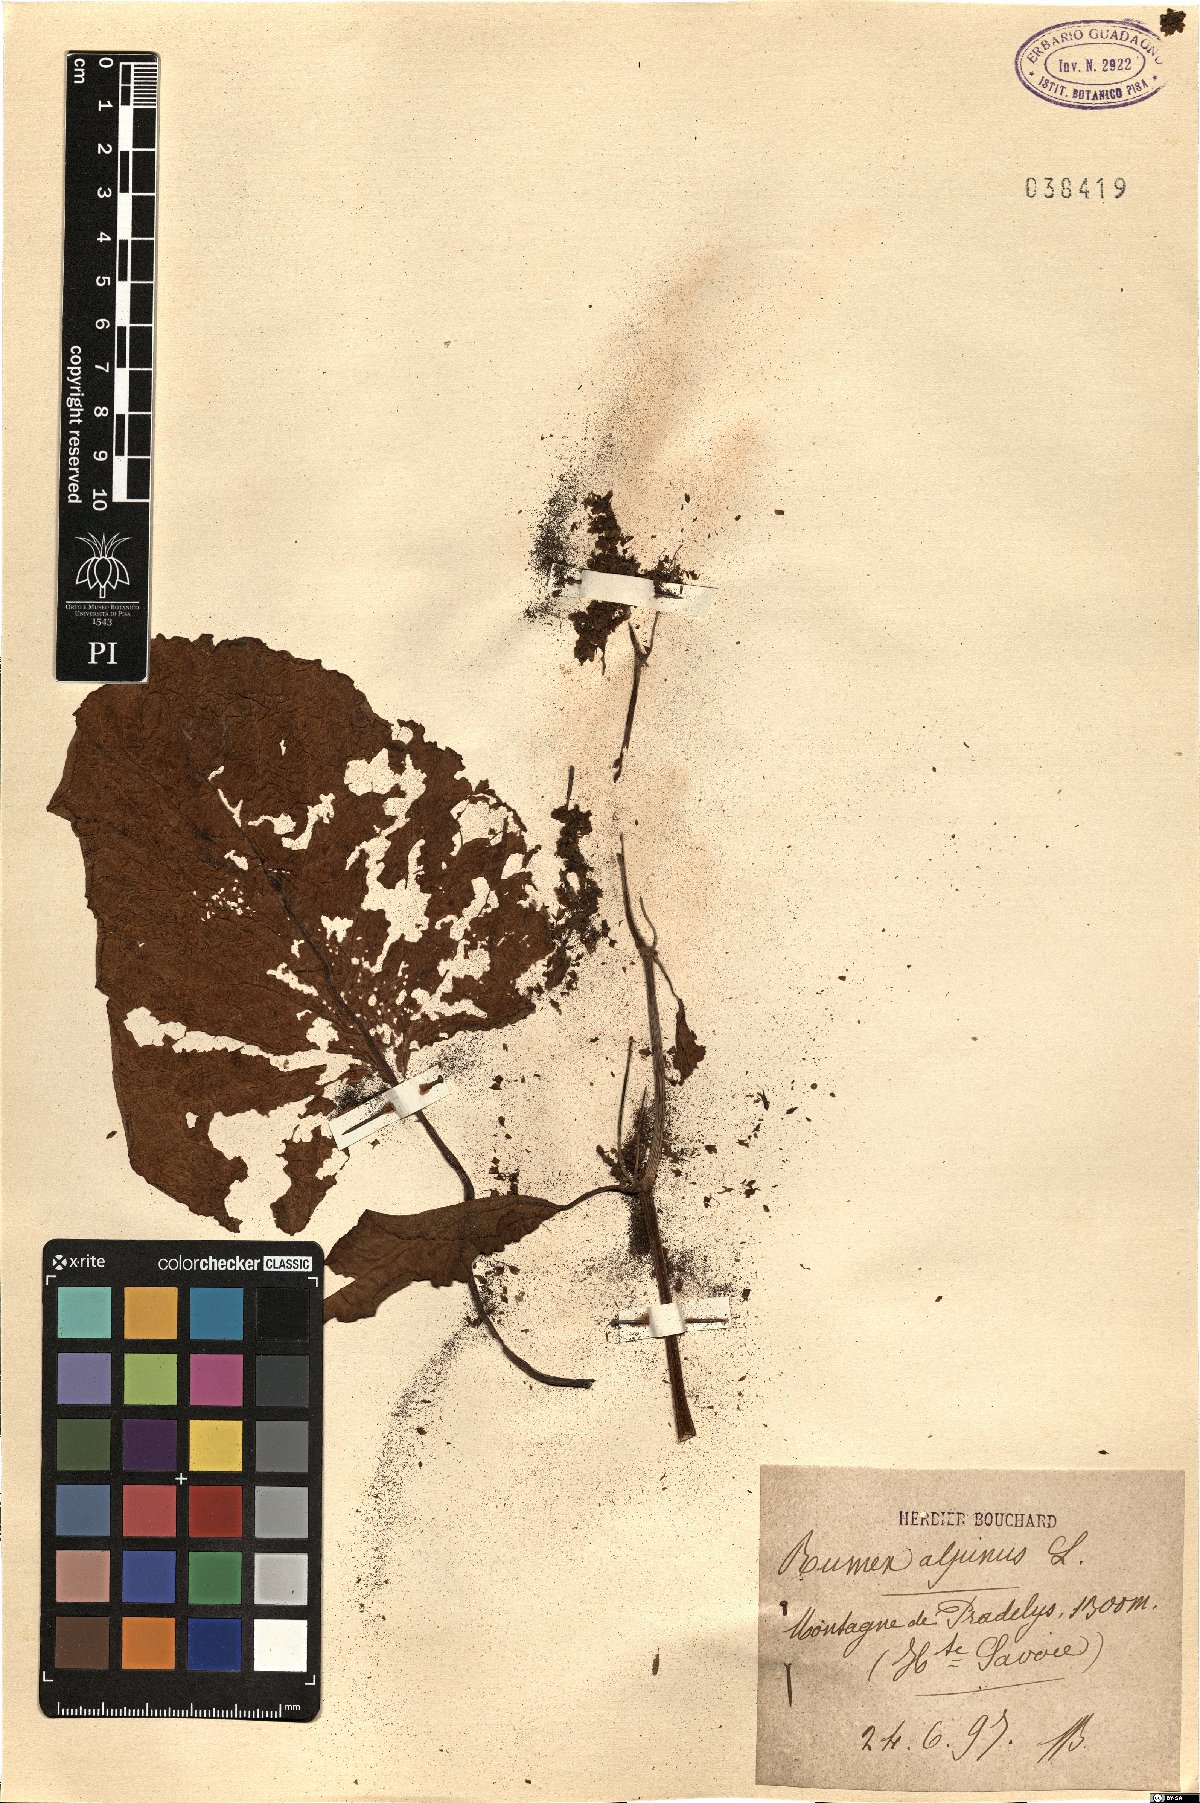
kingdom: Plantae
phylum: Tracheophyta
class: Magnoliopsida
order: Caryophyllales
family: Polygonaceae
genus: Rumex
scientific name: Rumex alpinus
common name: Alpine dock
